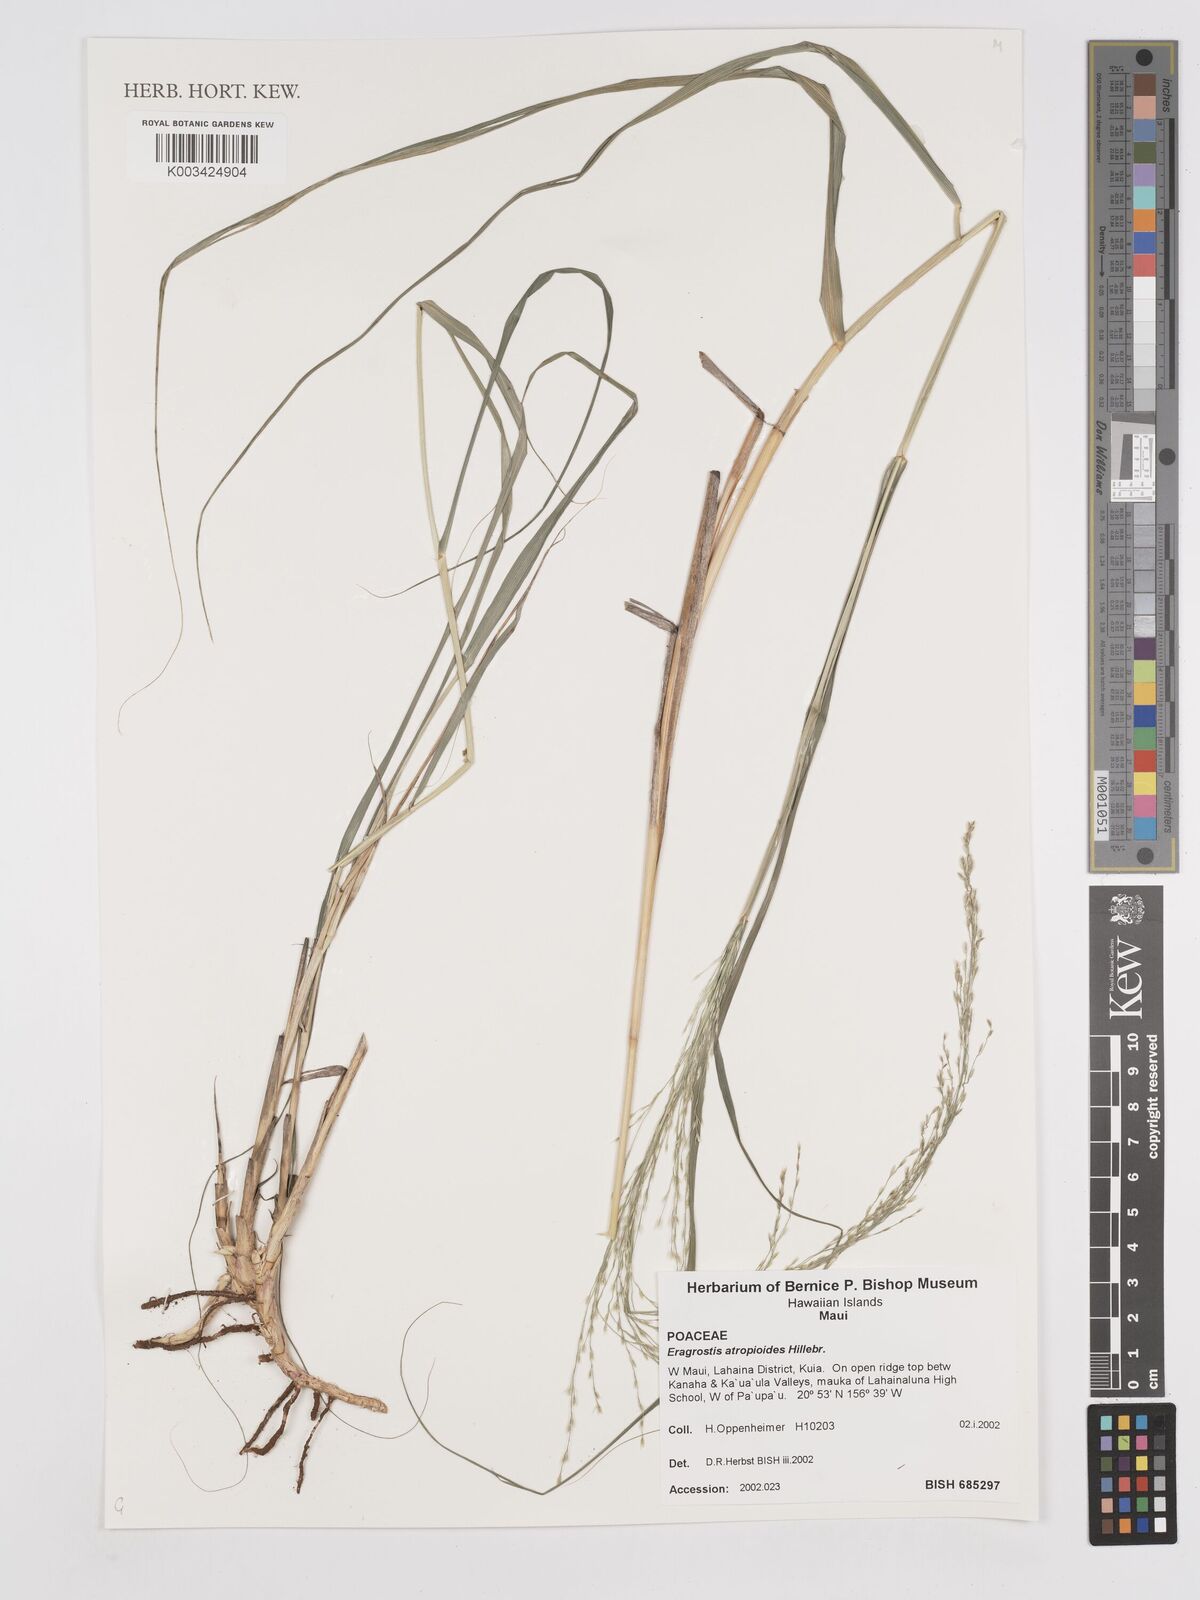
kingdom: Plantae
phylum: Tracheophyta
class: Liliopsida
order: Poales
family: Poaceae
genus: Eragrostis
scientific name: Eragrostis atropioides
